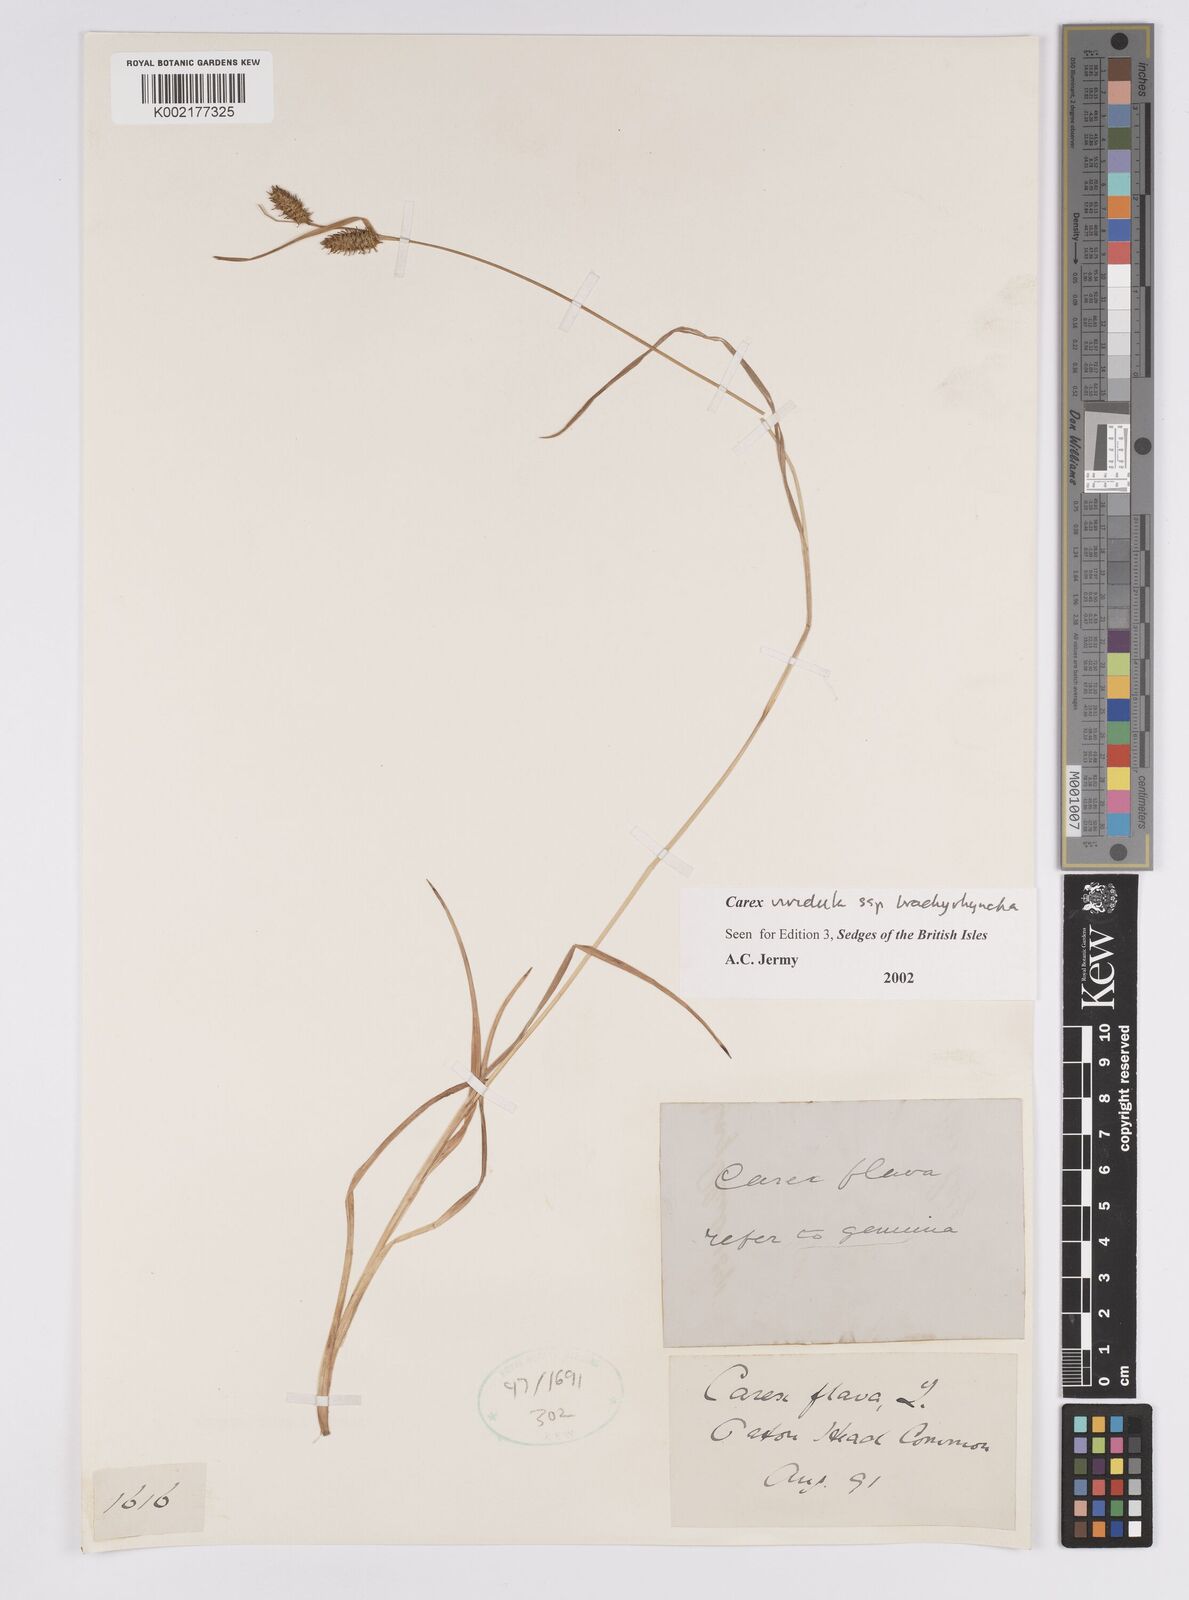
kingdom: Plantae
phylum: Tracheophyta
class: Liliopsida
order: Poales
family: Cyperaceae
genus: Carex
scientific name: Carex hostiana
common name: Tawny sedge
